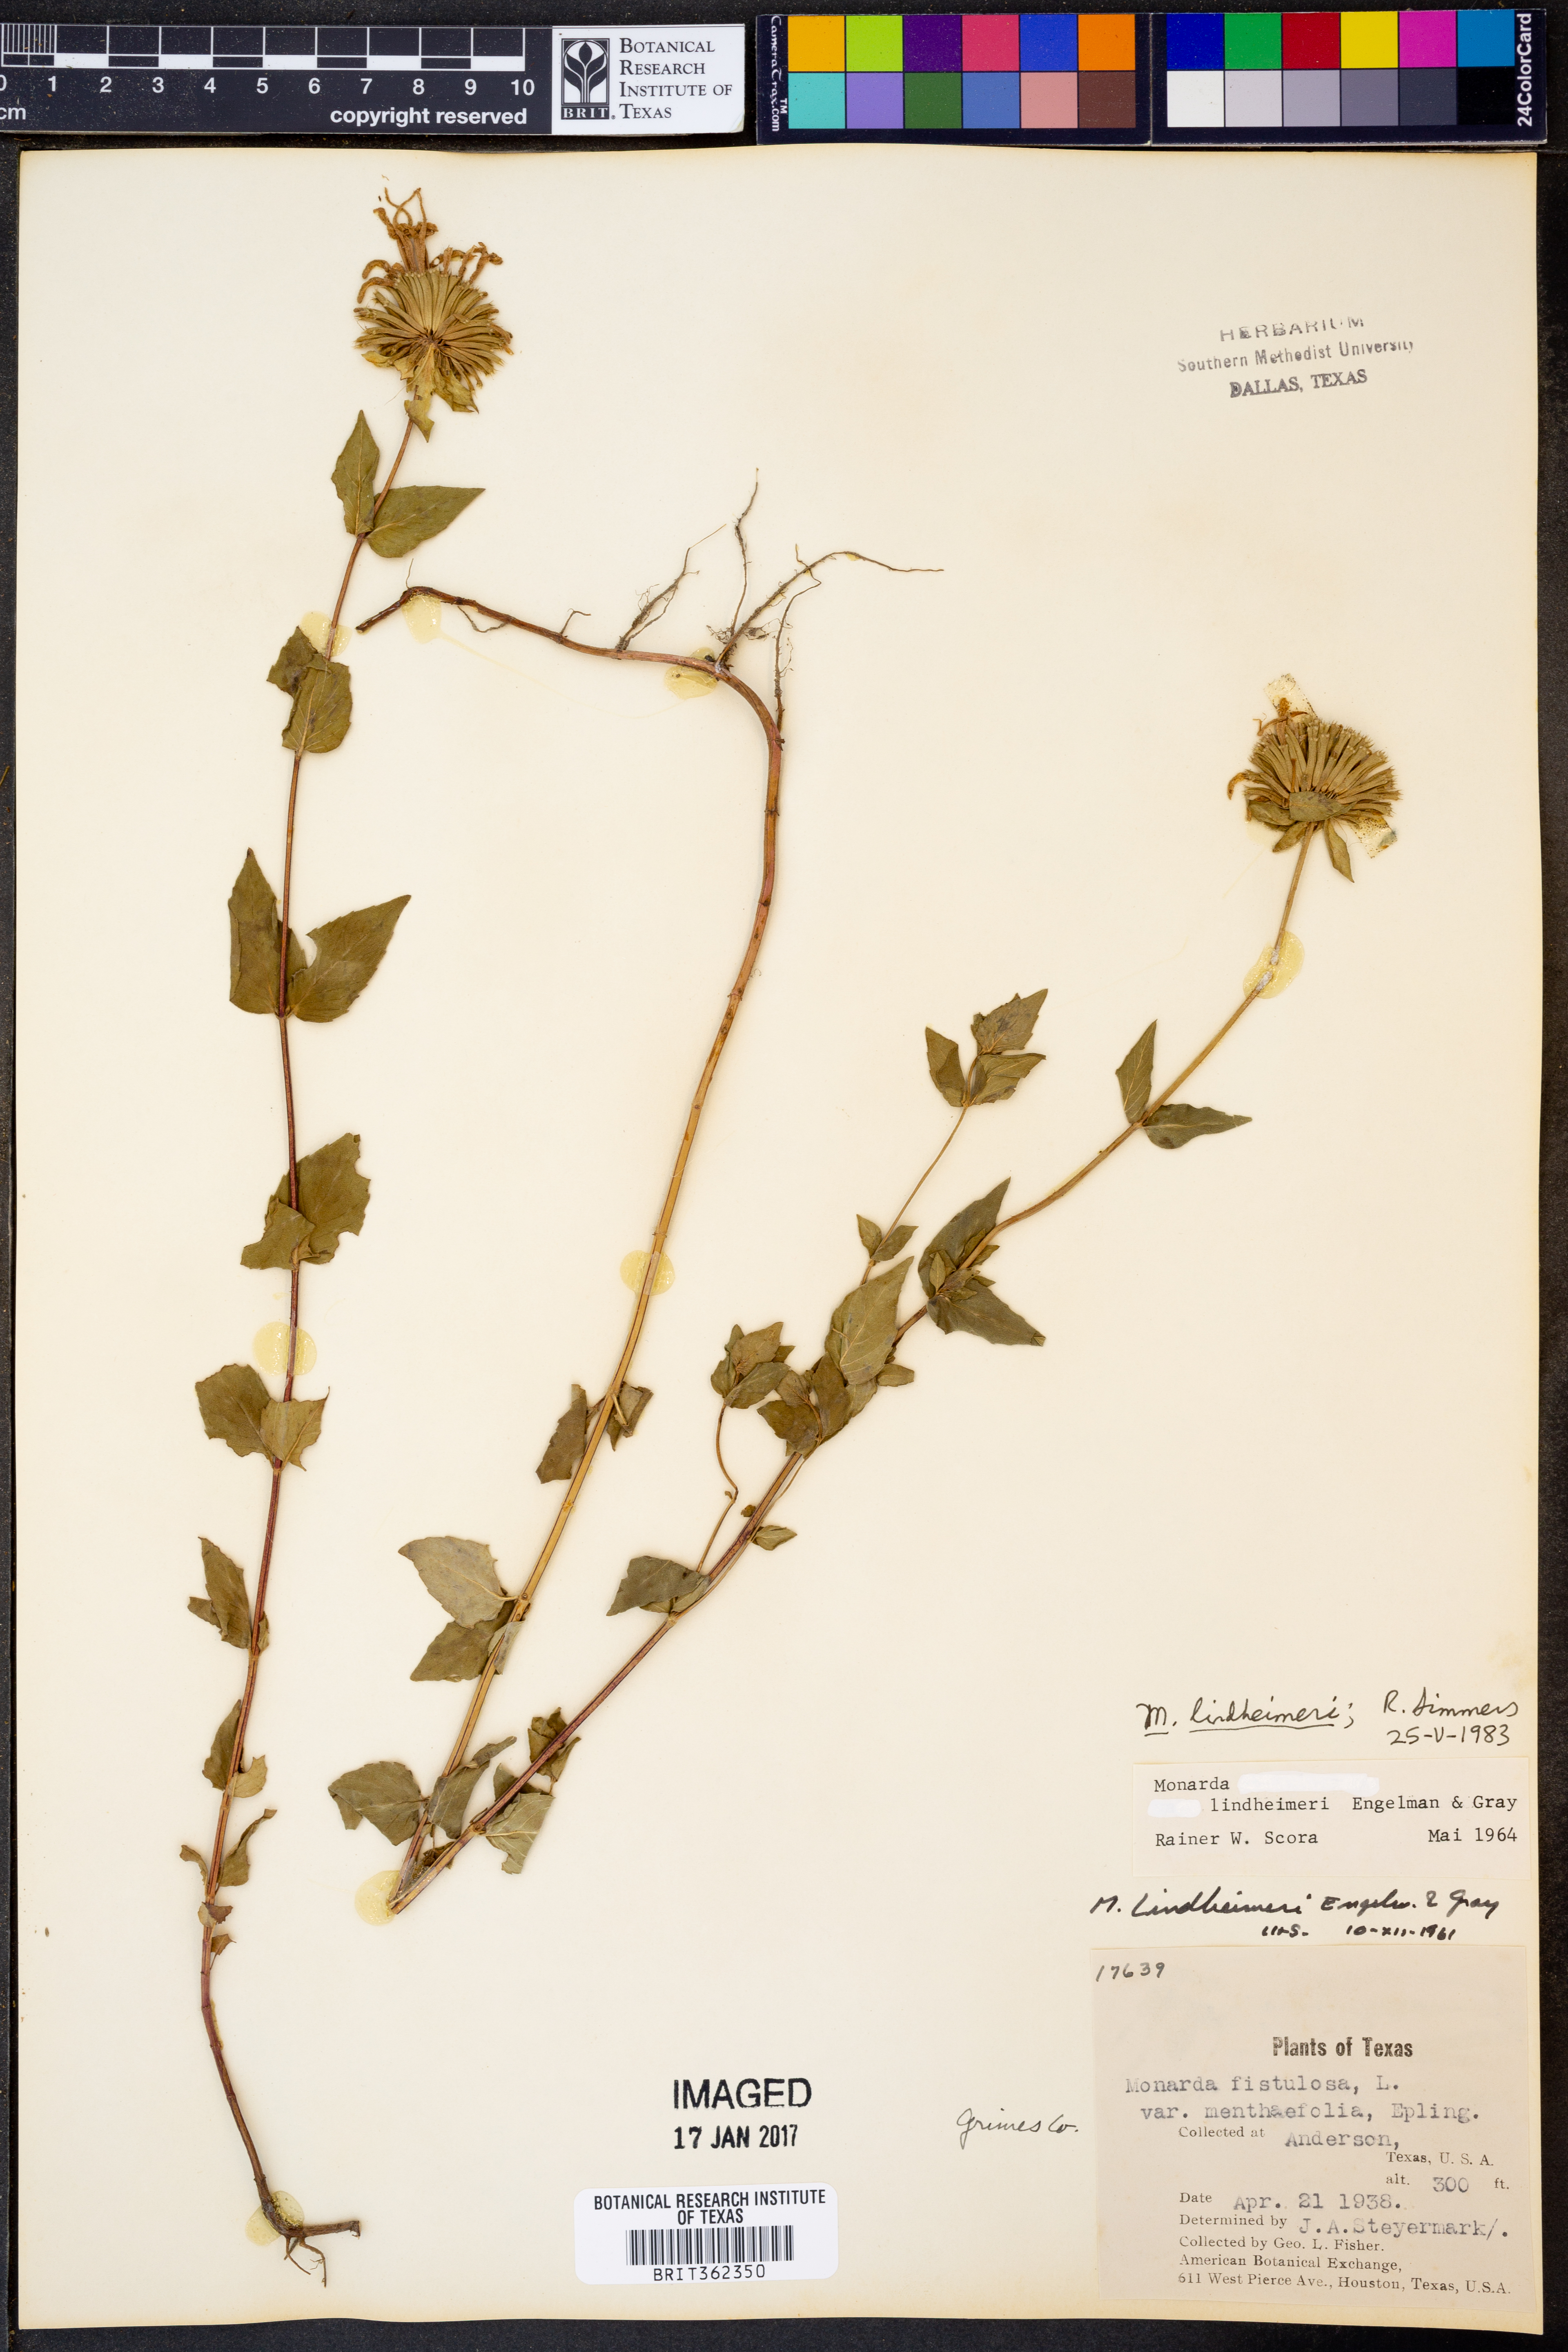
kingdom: Plantae
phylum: Tracheophyta
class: Magnoliopsida
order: Lamiales
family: Lamiaceae
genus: Monarda
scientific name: Monarda lindheimeri
